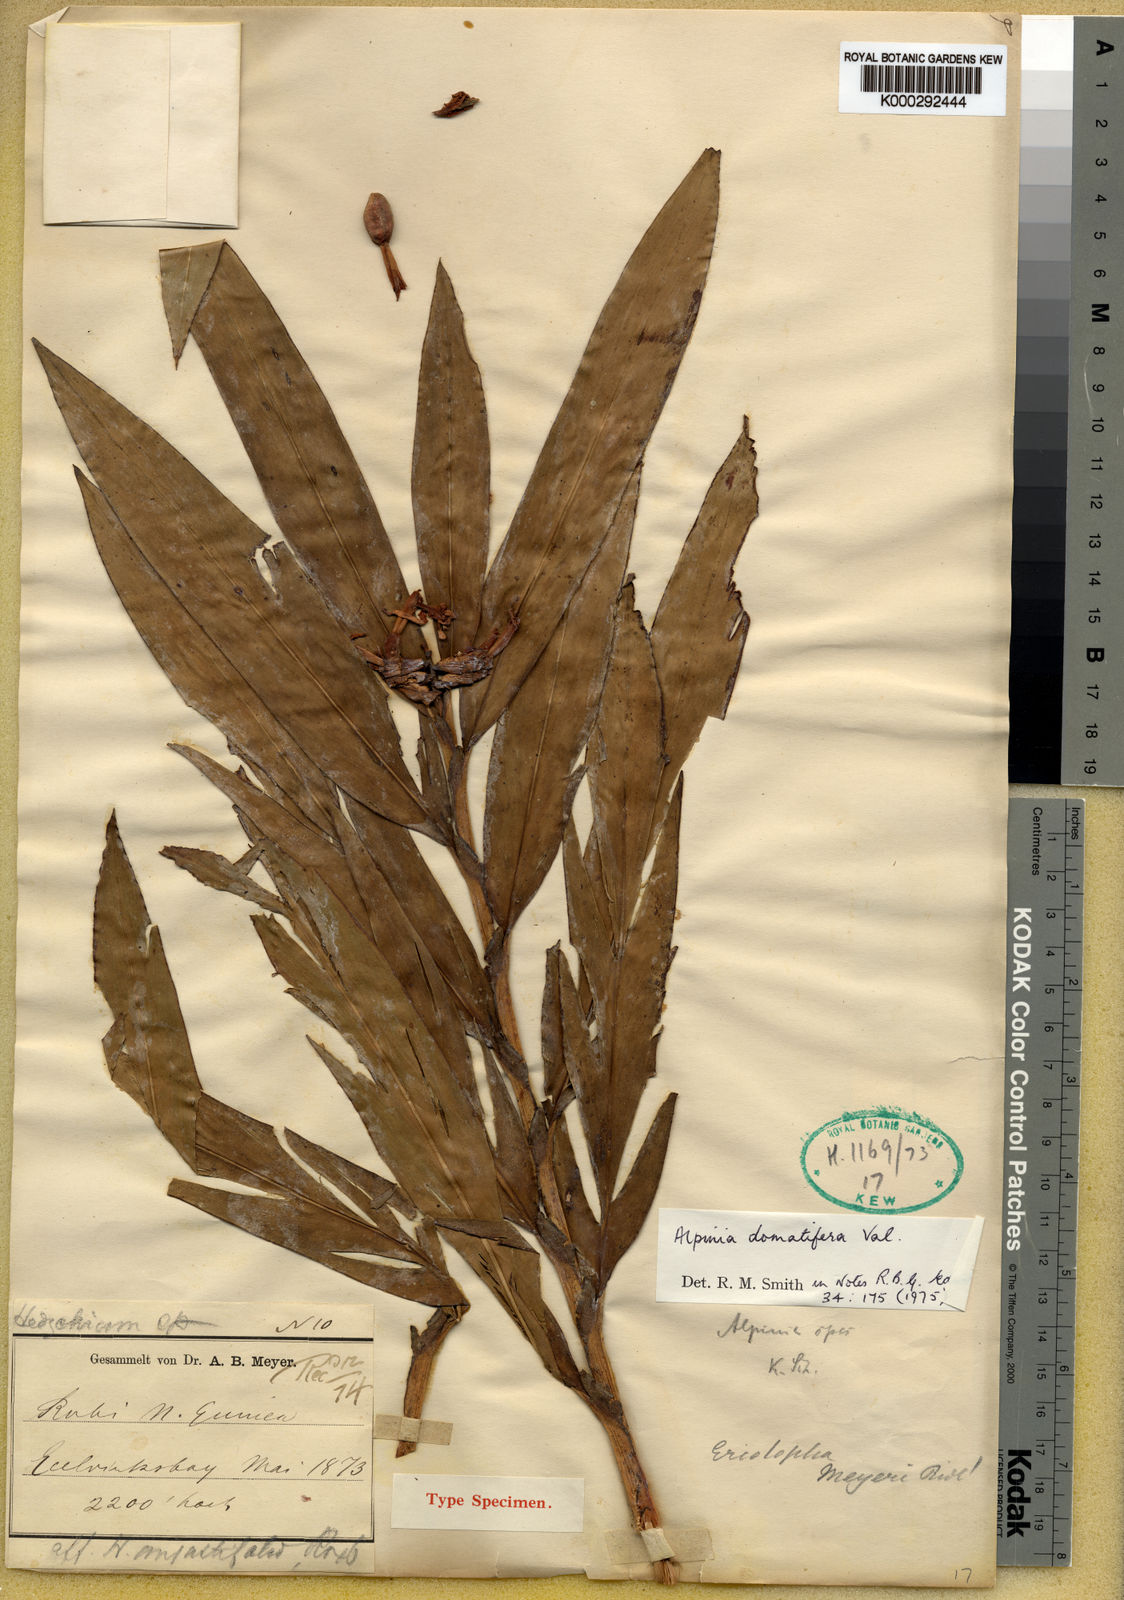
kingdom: Plantae
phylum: Tracheophyta
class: Liliopsida
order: Zingiberales
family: Zingiberaceae
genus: Alpinia
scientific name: Alpinia domatifera
